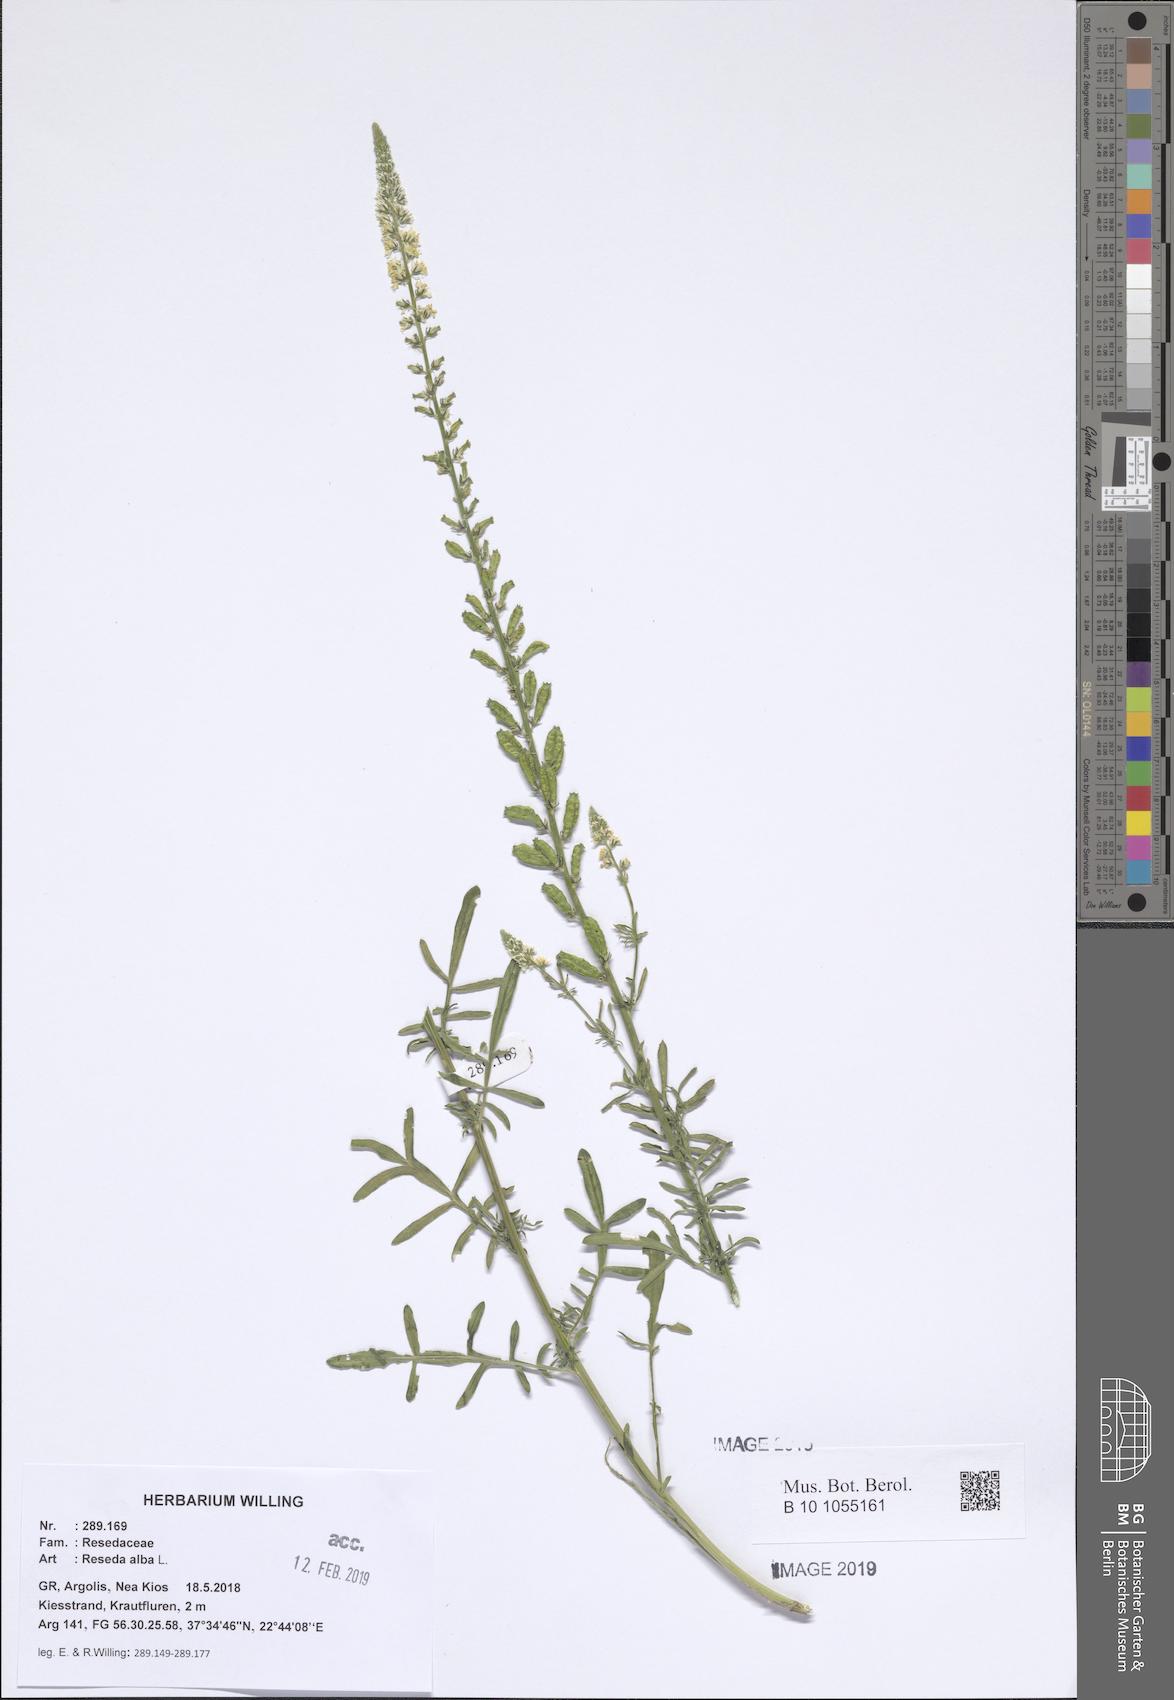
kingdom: Plantae
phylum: Tracheophyta
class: Magnoliopsida
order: Brassicales
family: Resedaceae
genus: Reseda
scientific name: Reseda alba
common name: White mignonette
